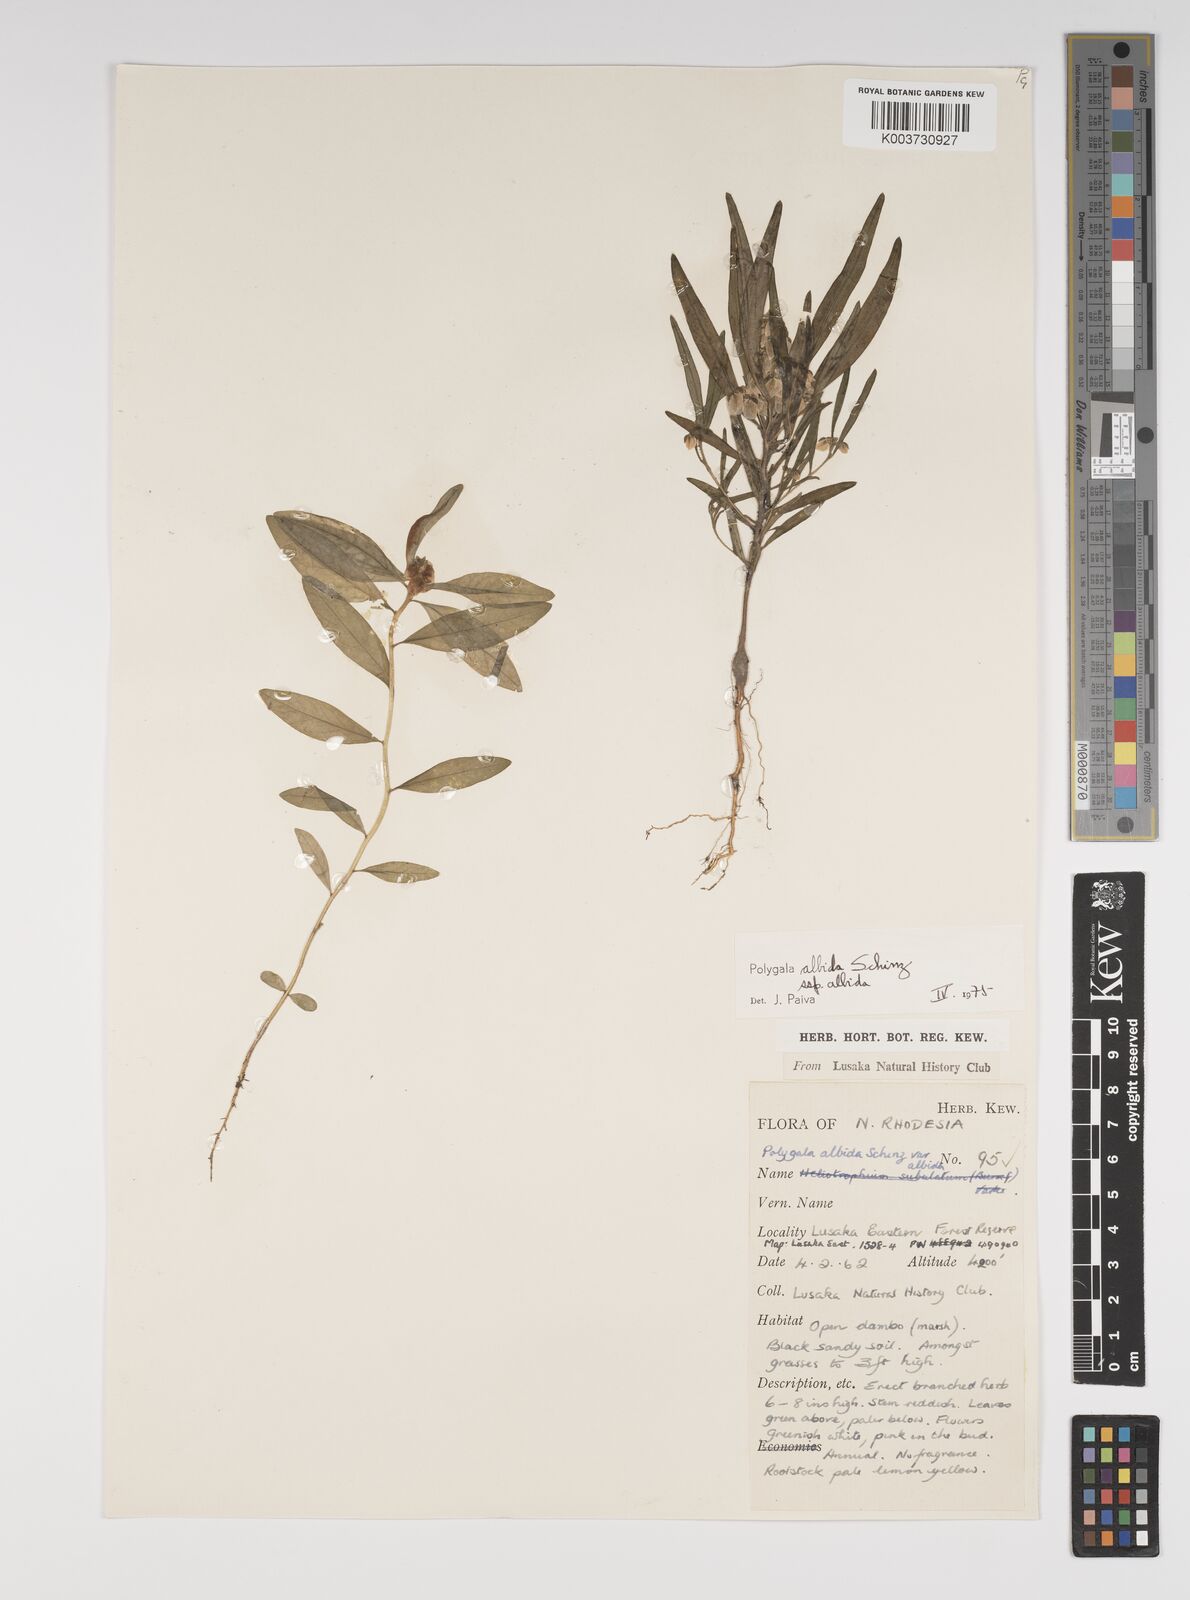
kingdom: Plantae
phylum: Tracheophyta
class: Magnoliopsida
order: Fabales
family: Polygalaceae
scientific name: Polygalaceae
